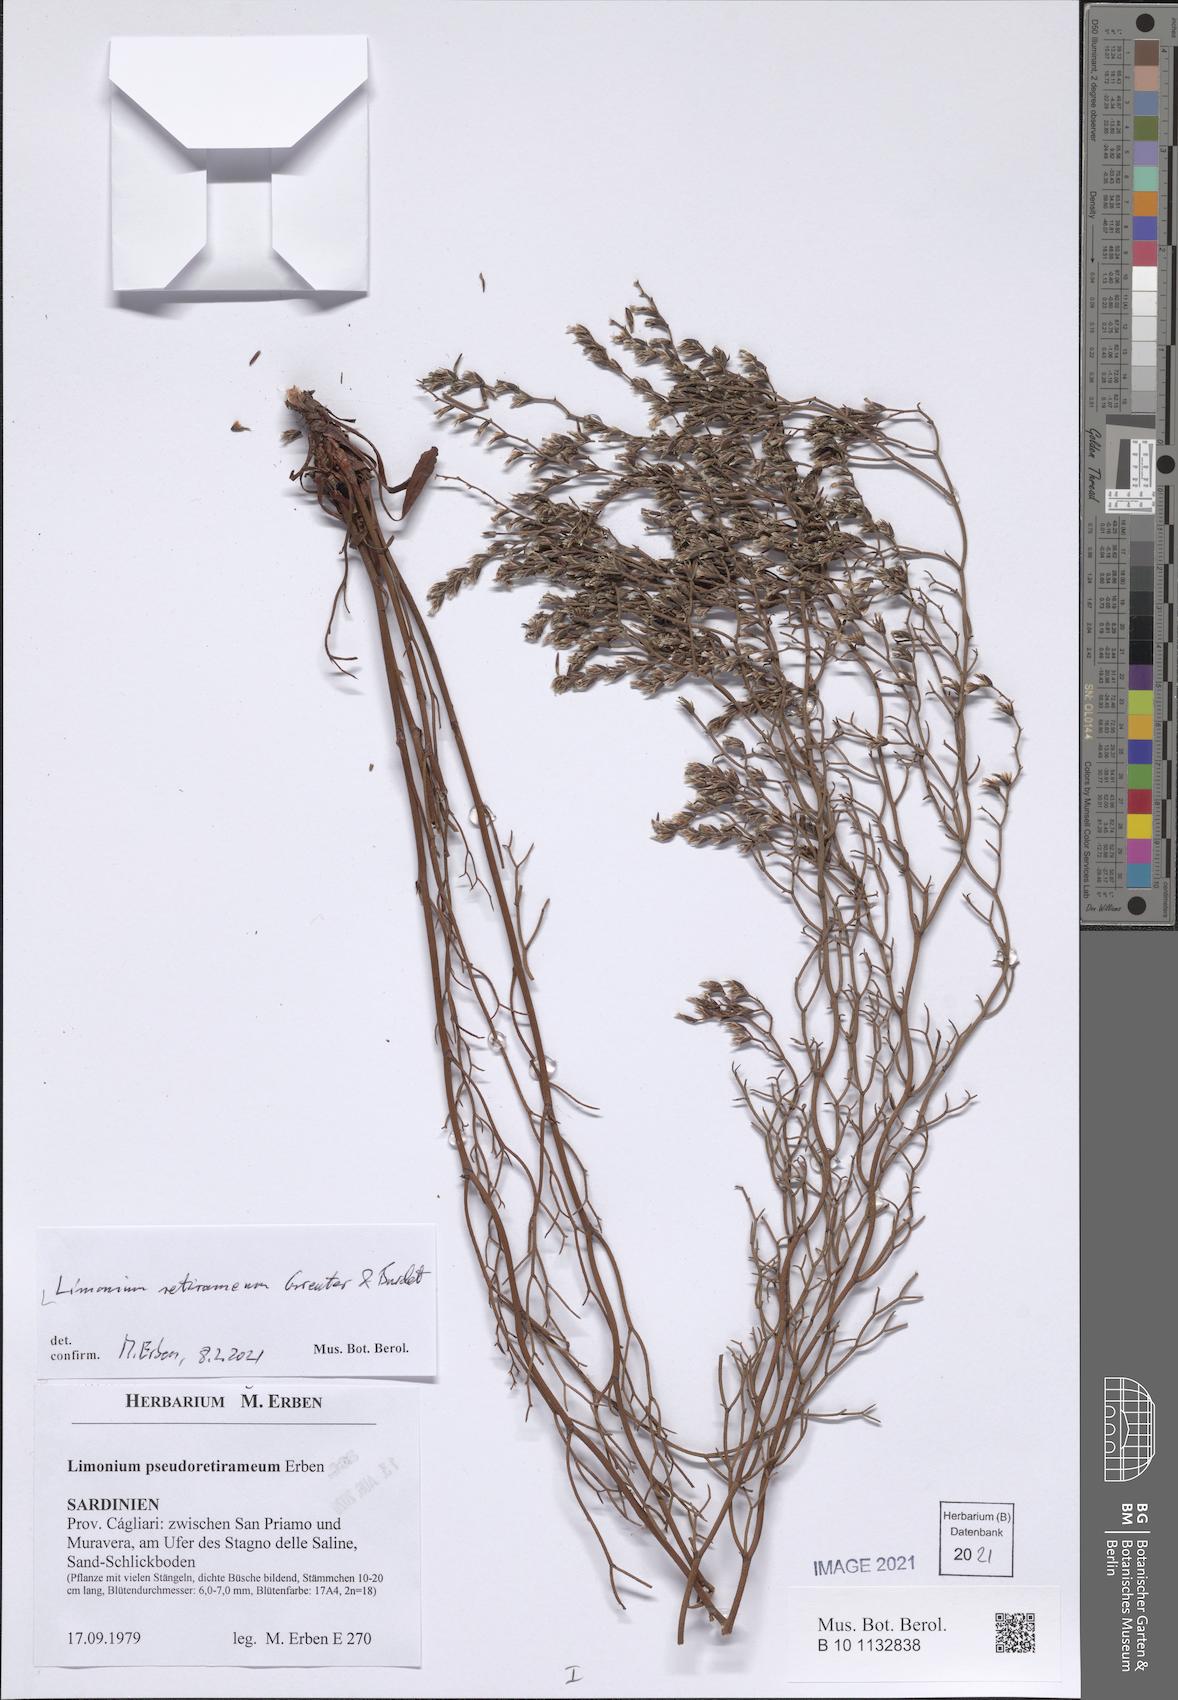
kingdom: Plantae
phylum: Tracheophyta
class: Magnoliopsida
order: Caryophyllales
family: Plumbaginaceae
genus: Limonium
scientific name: Limonium retirameum
